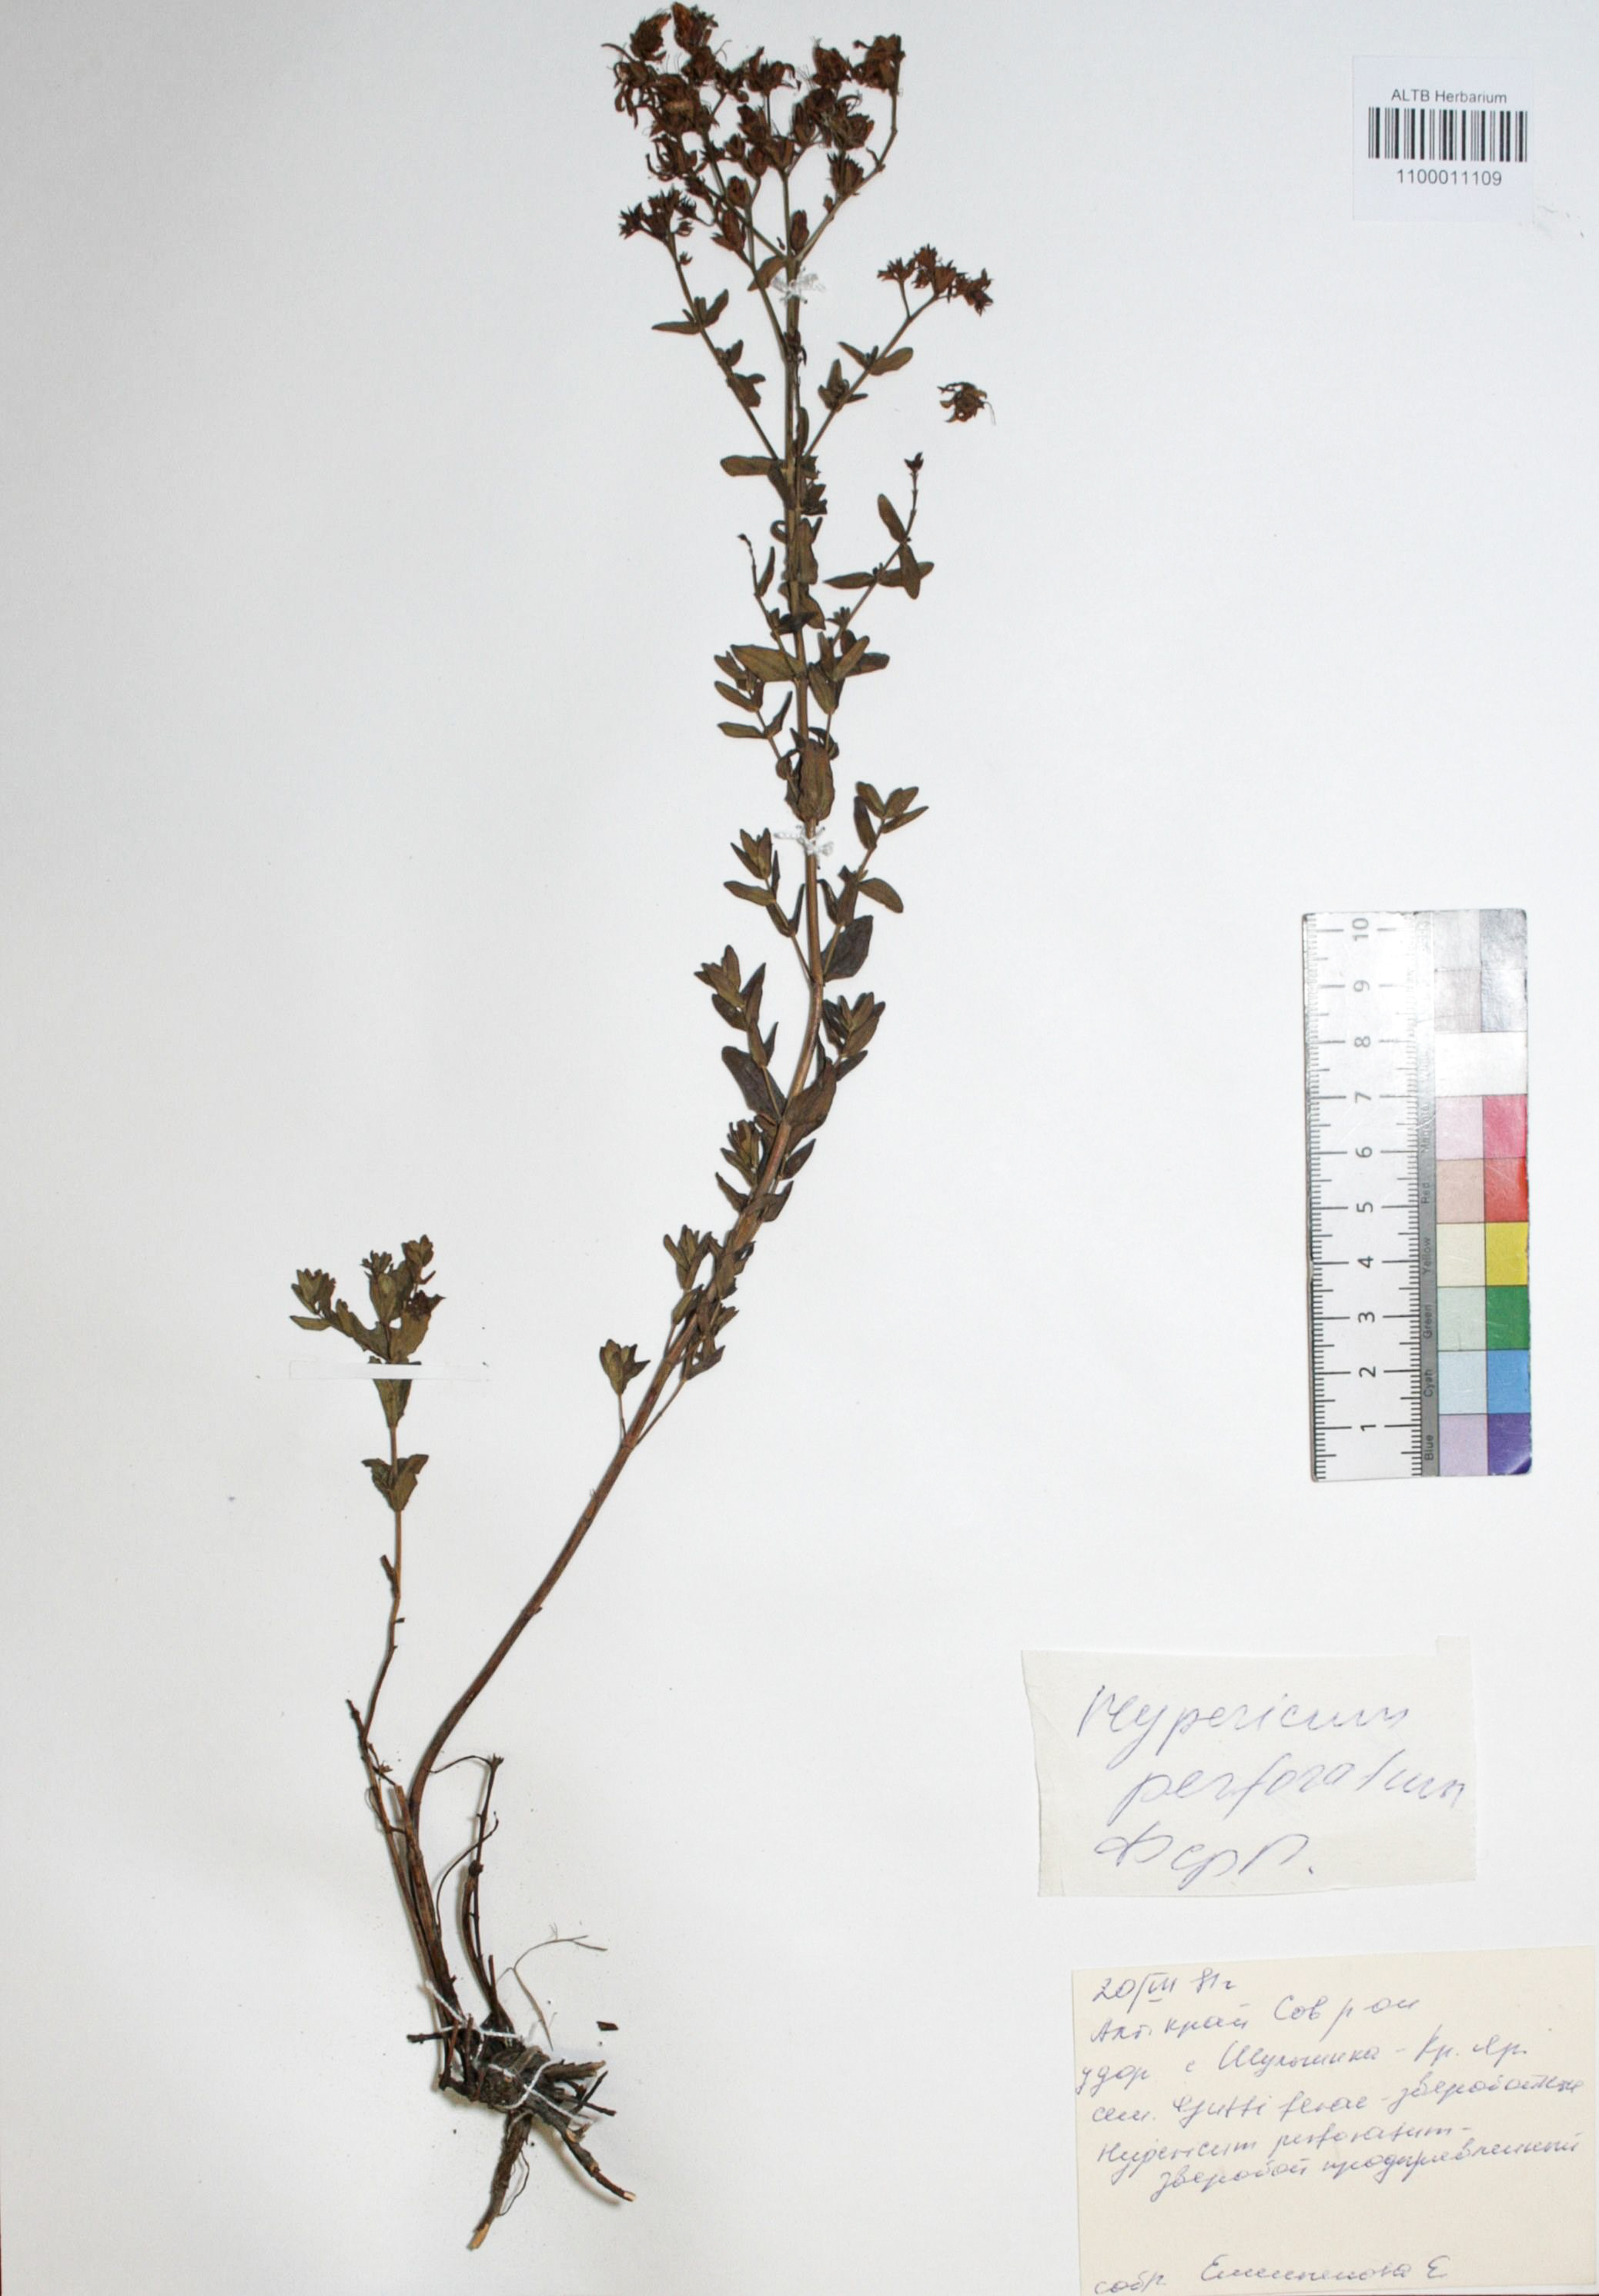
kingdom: Plantae
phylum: Tracheophyta
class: Magnoliopsida
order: Malpighiales
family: Hypericaceae
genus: Hypericum
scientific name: Hypericum perforatum
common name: Common st. johnswort
